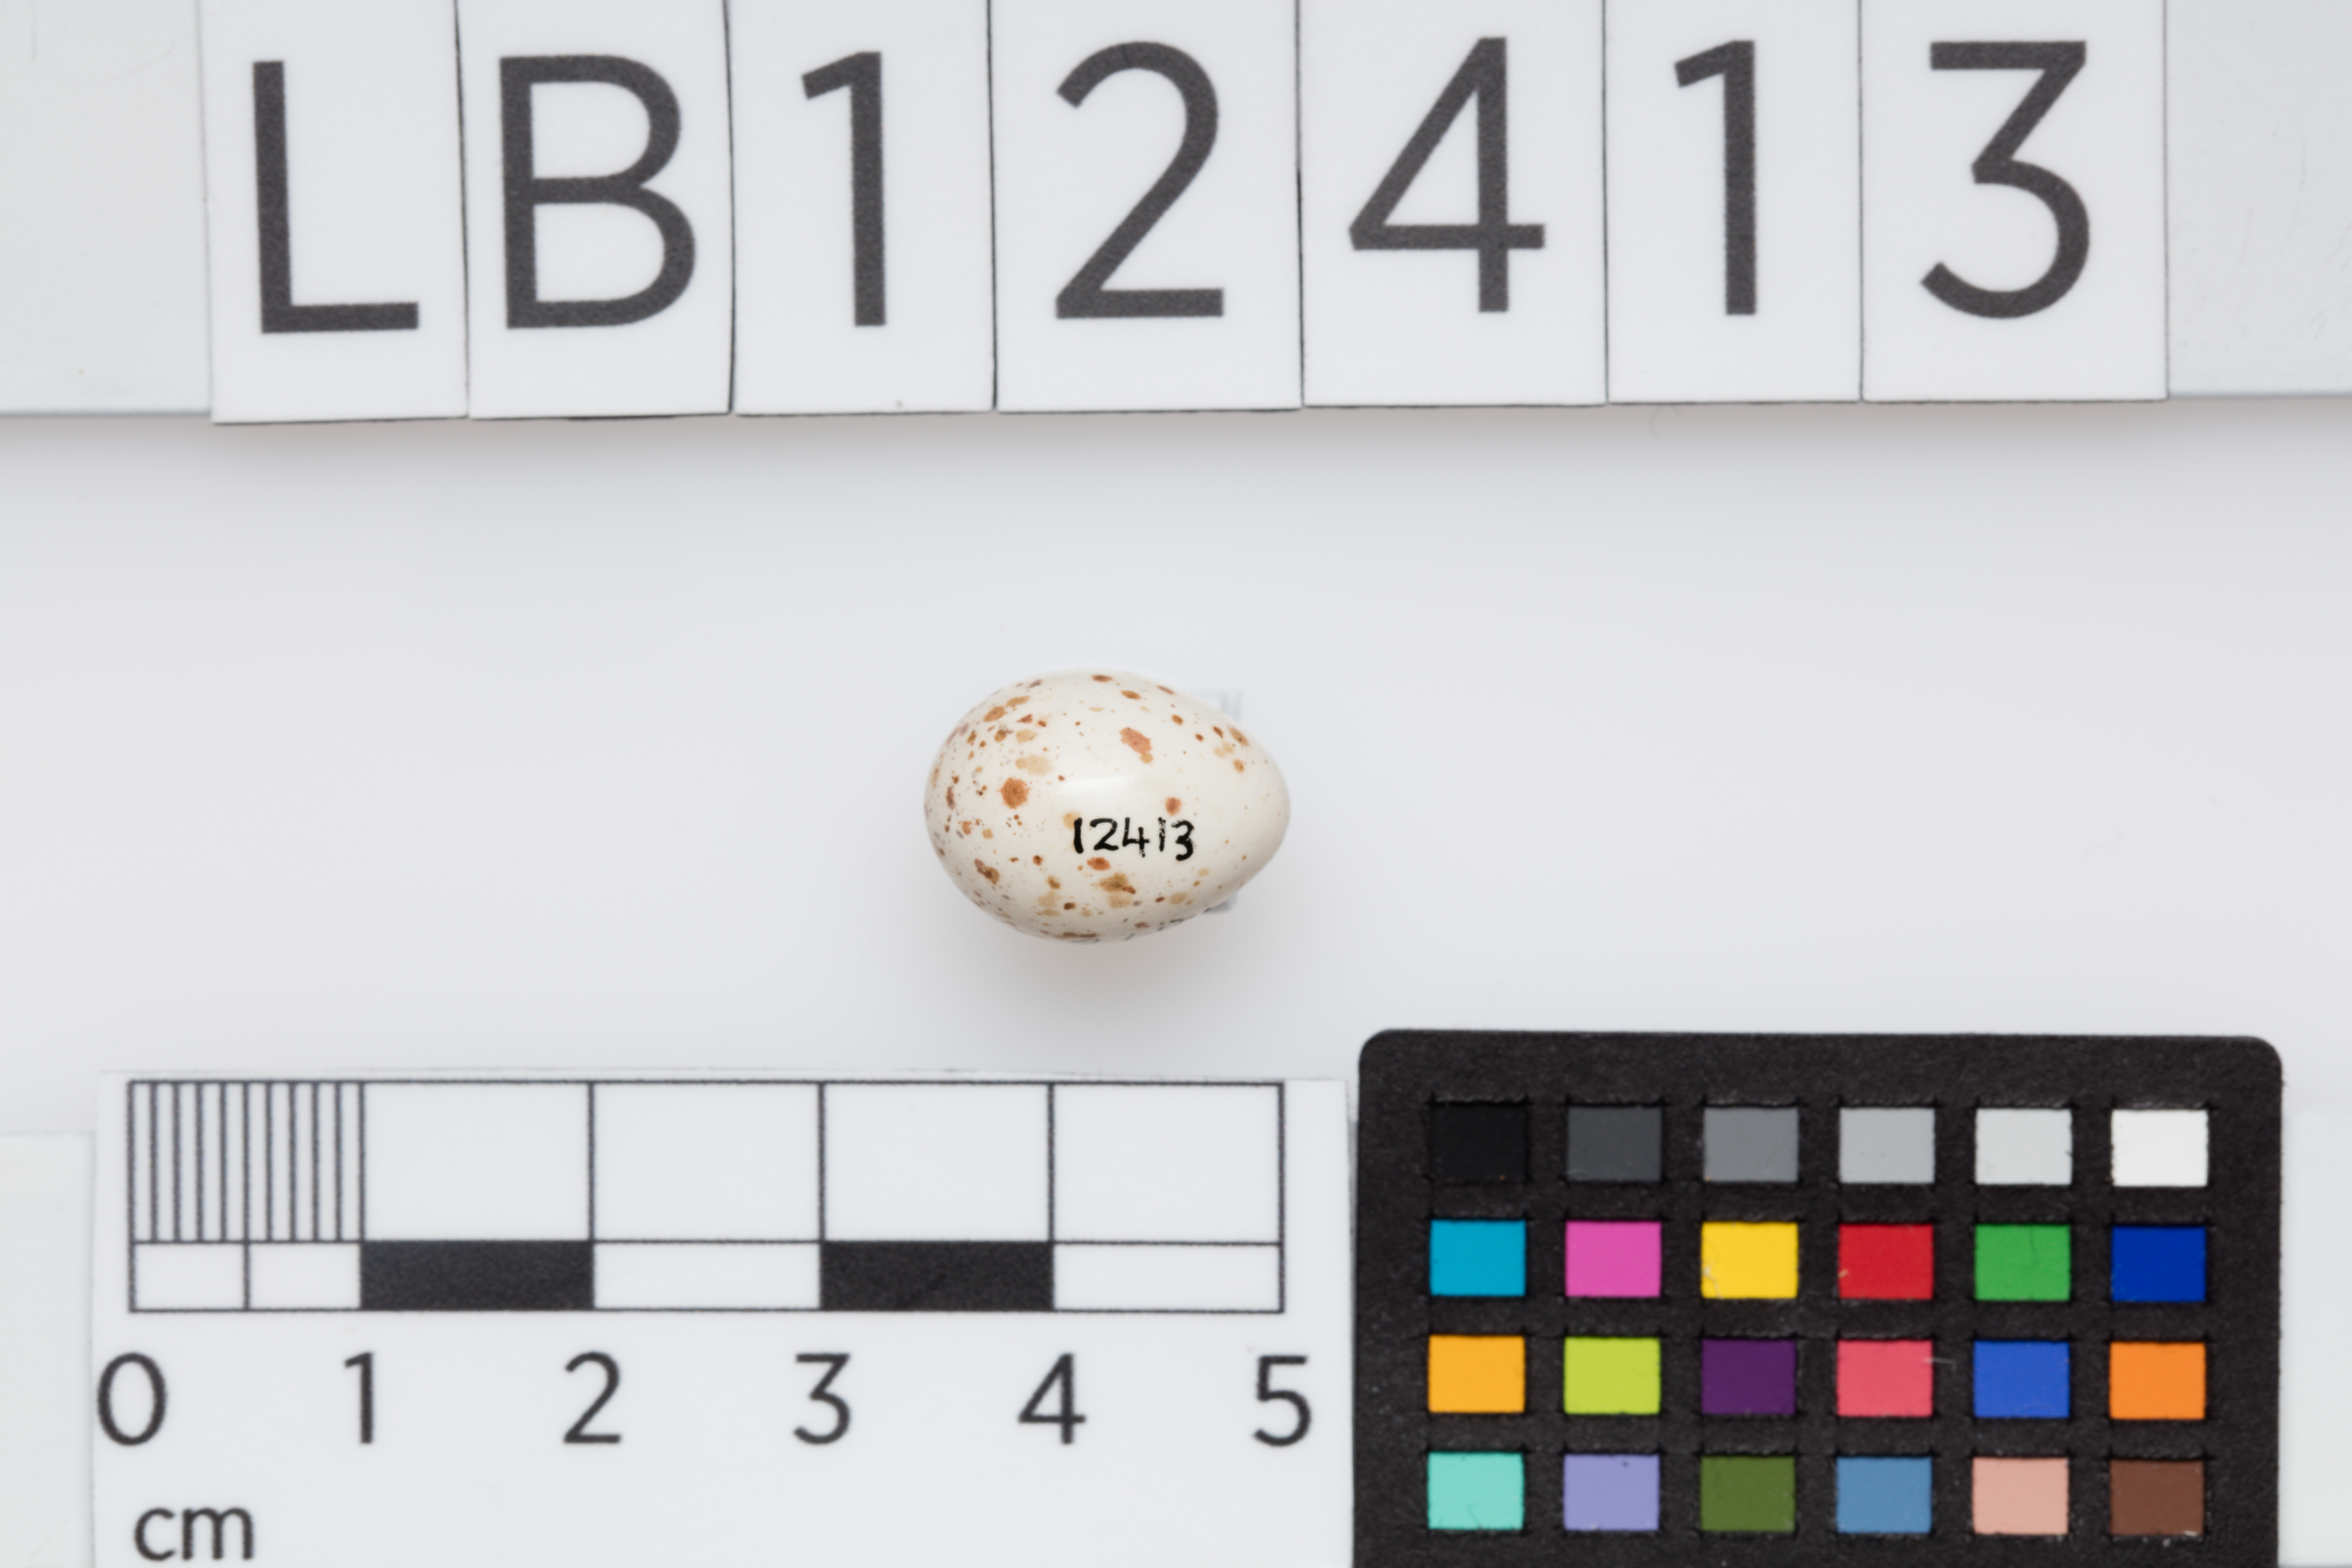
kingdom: Animalia
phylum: Chordata
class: Aves
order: Passeriformes
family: Certhiidae
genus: Certhia
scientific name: Certhia familiaris
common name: Eurasian treecreeper
